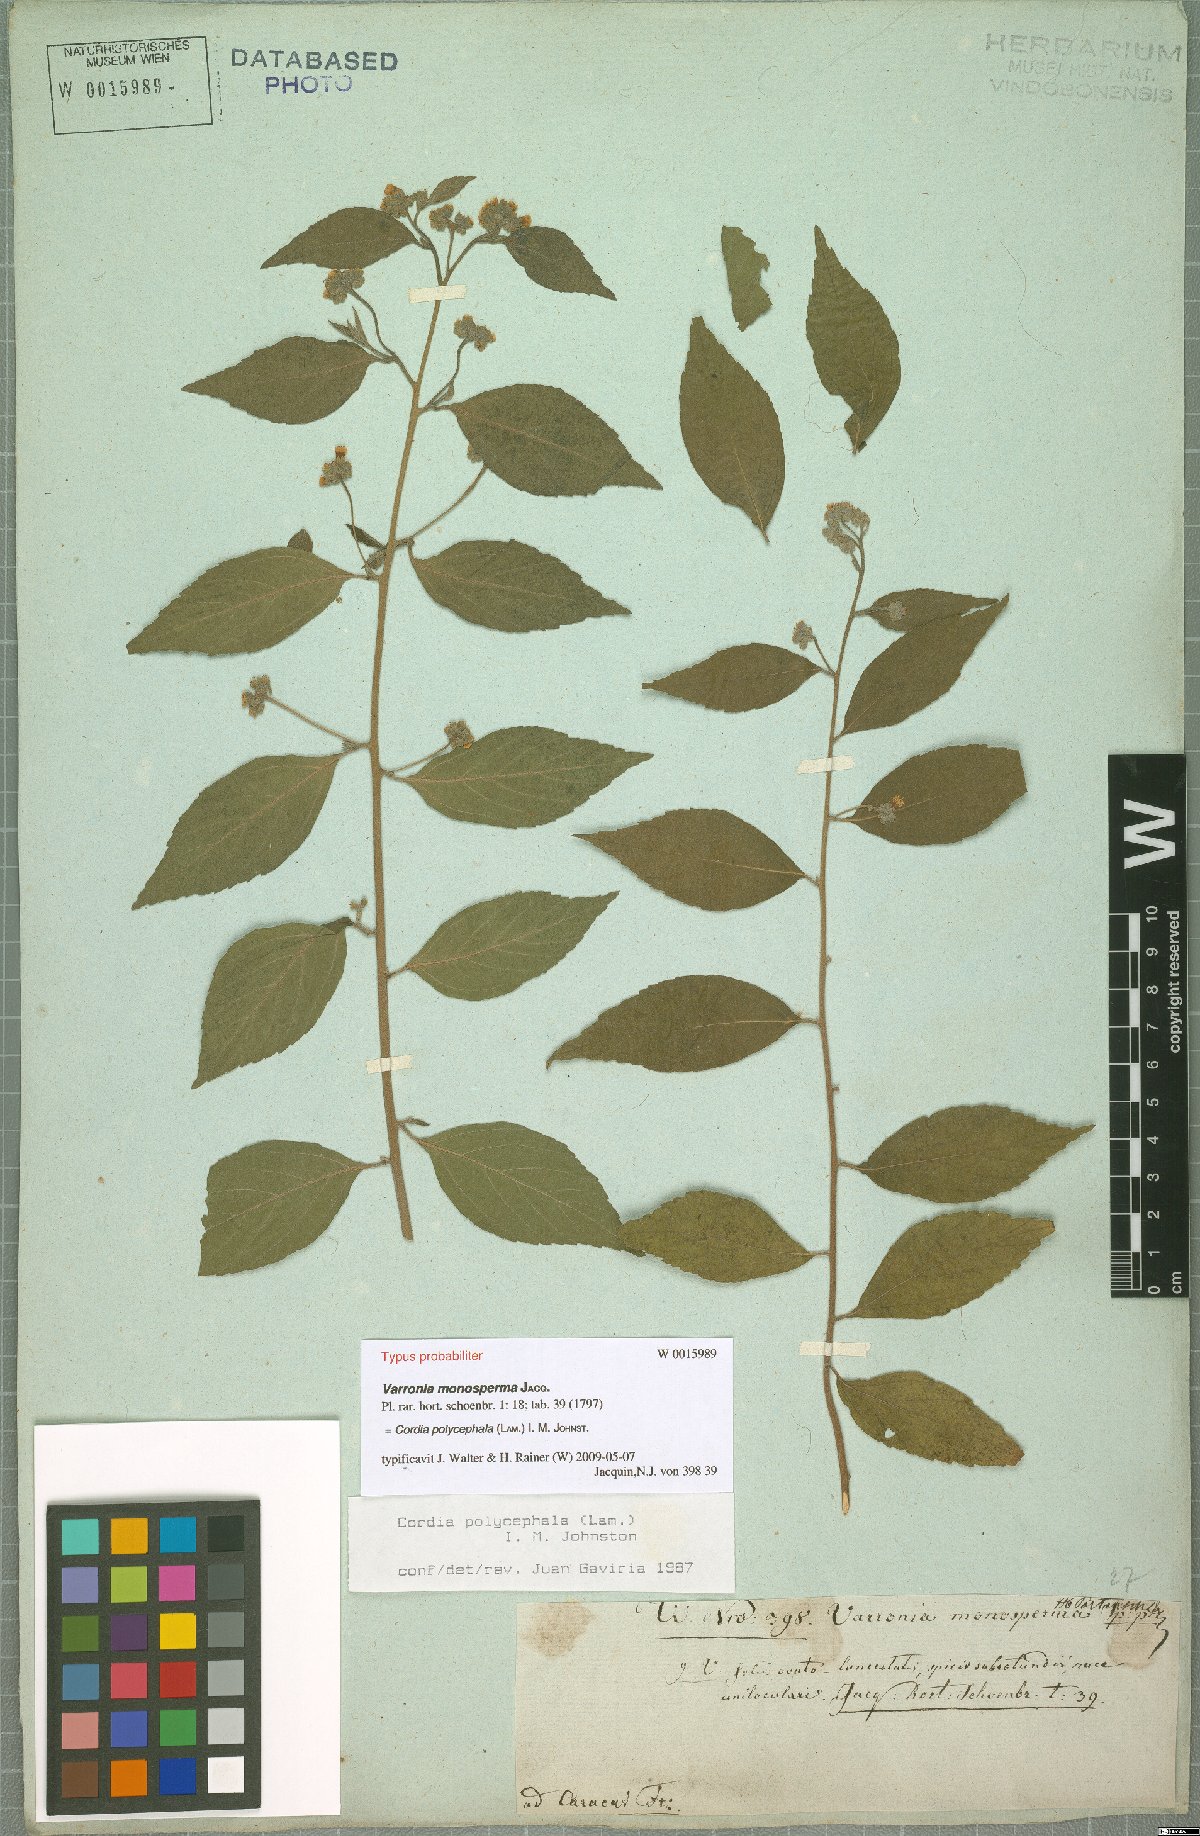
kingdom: Plantae
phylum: Tracheophyta
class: Magnoliopsida
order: Boraginales
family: Cordiaceae
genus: Varronia
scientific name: Varronia polycephala
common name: Black-sage
